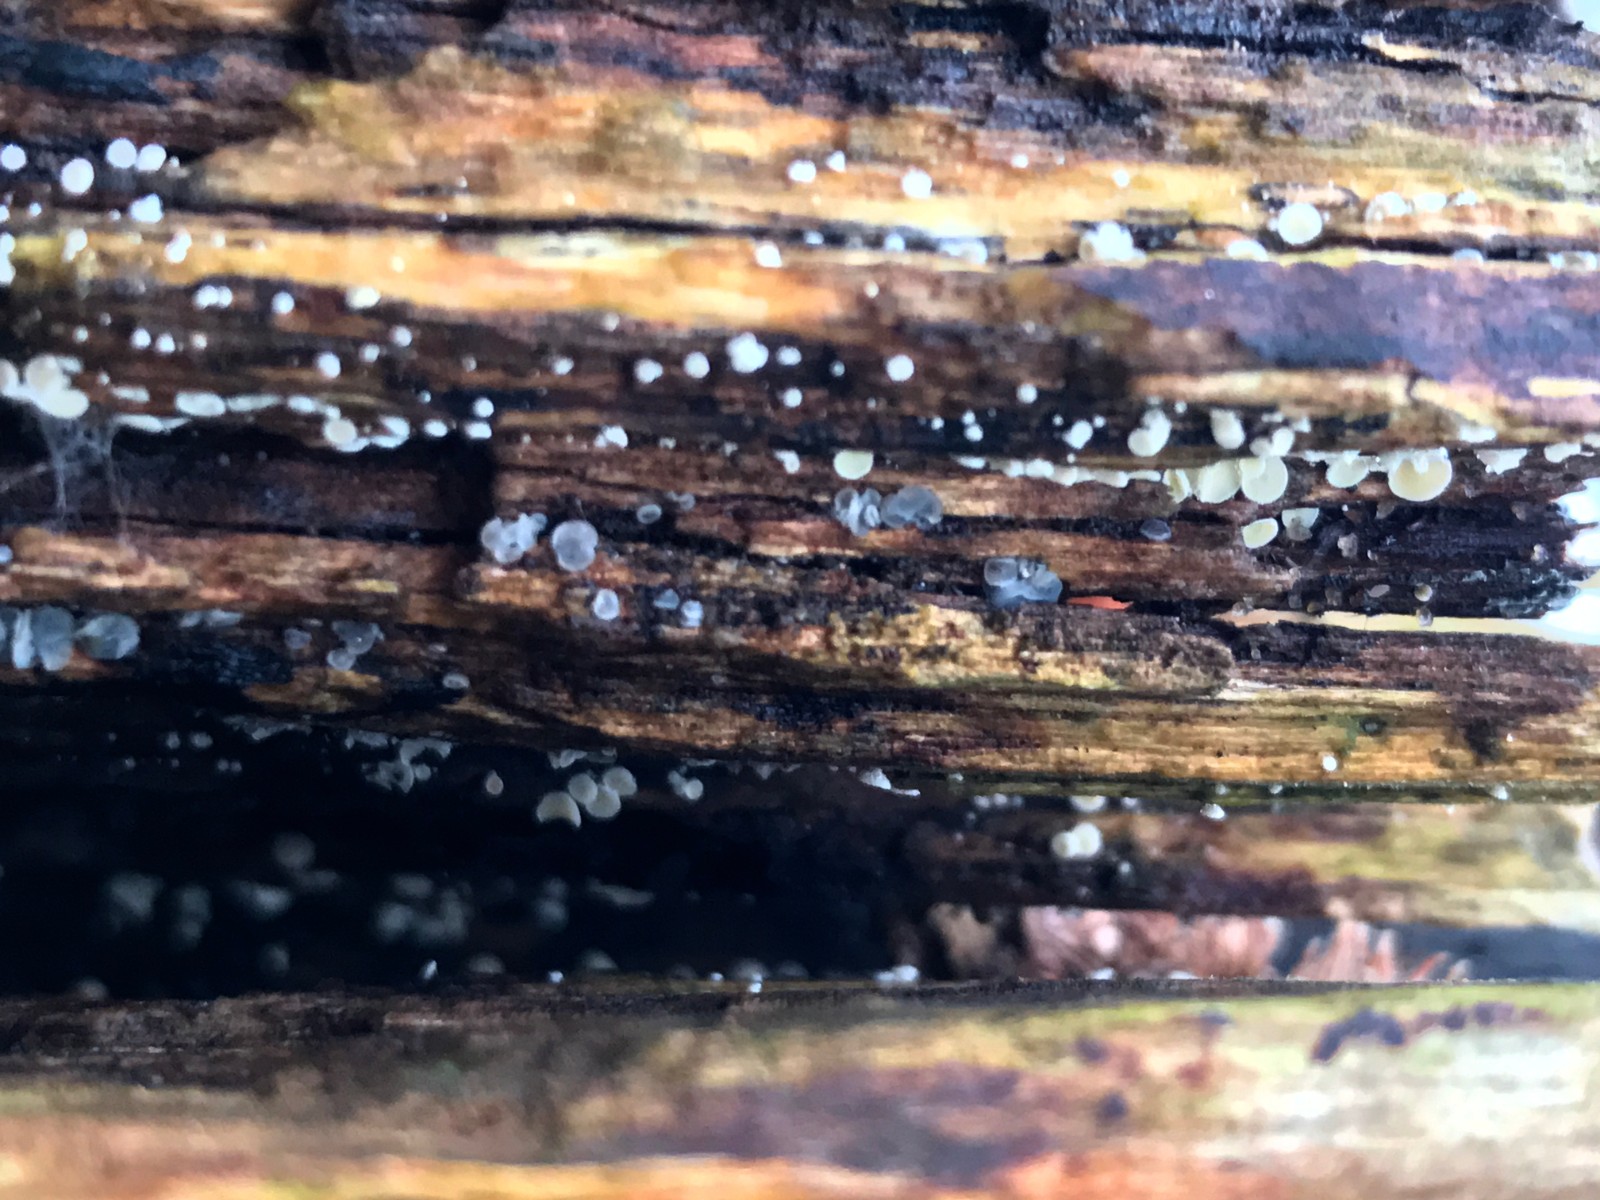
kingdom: Fungi
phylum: Ascomycota
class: Leotiomycetes
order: Helotiales
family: Mollisiaceae
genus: Mollisia
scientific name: Mollisia
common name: gråskive
